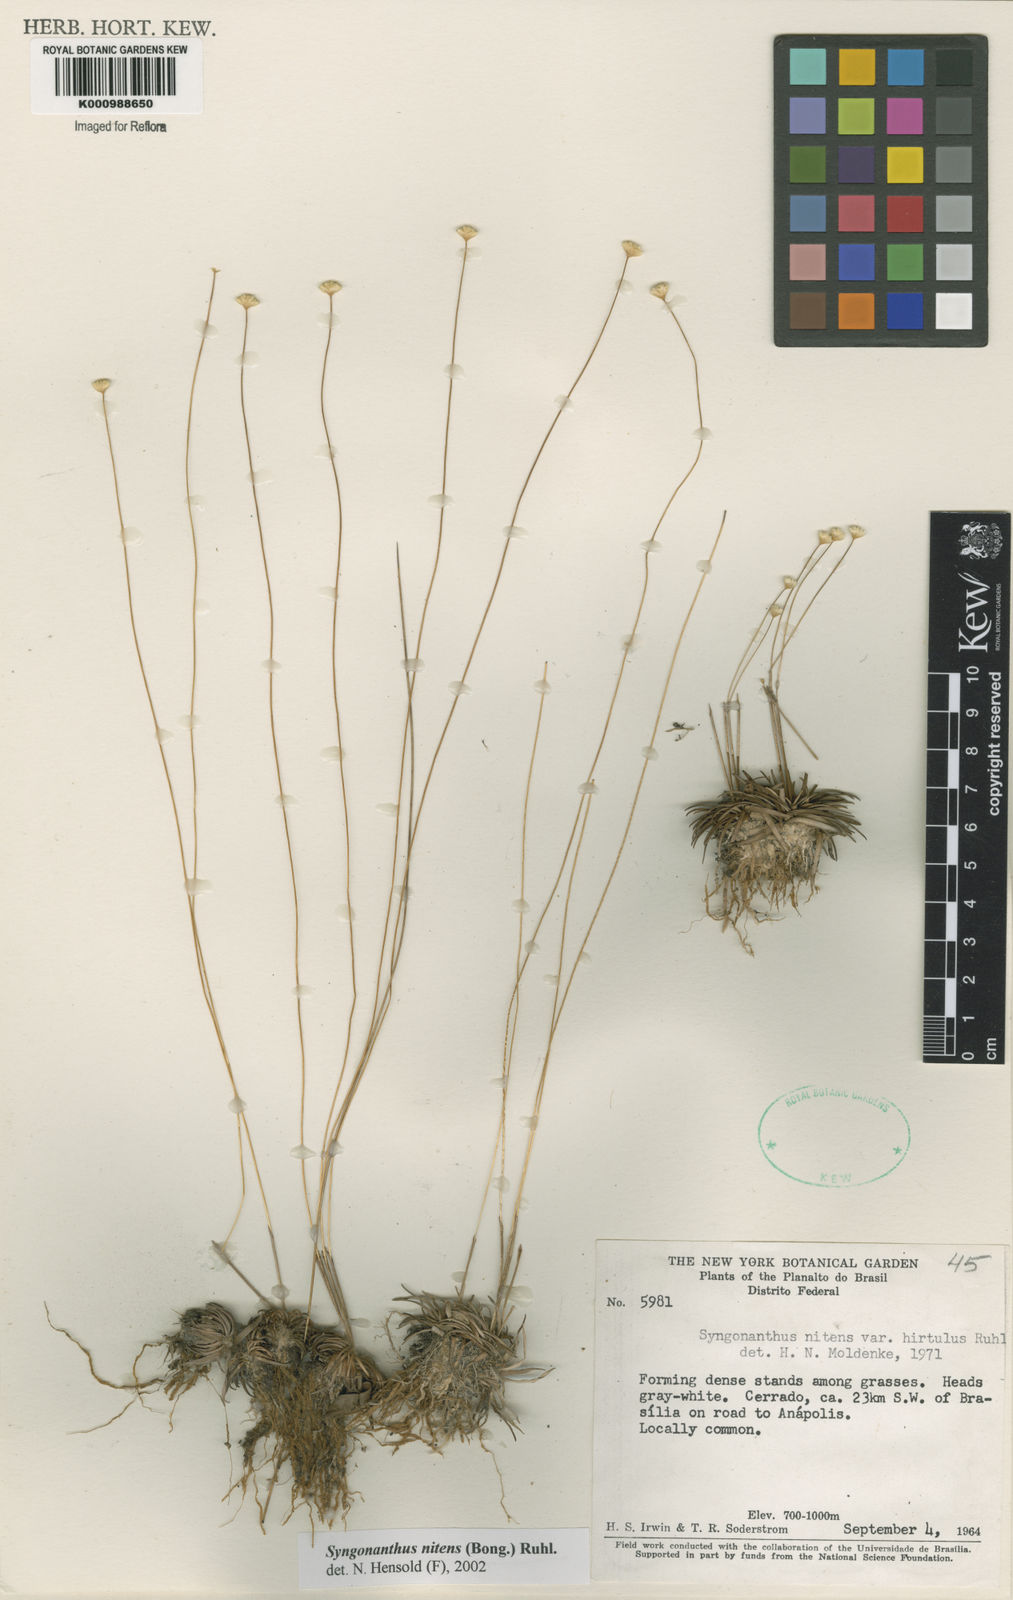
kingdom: Plantae
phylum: Tracheophyta
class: Liliopsida
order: Poales
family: Eriocaulaceae
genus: Syngonanthus
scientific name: Syngonanthus nitens
